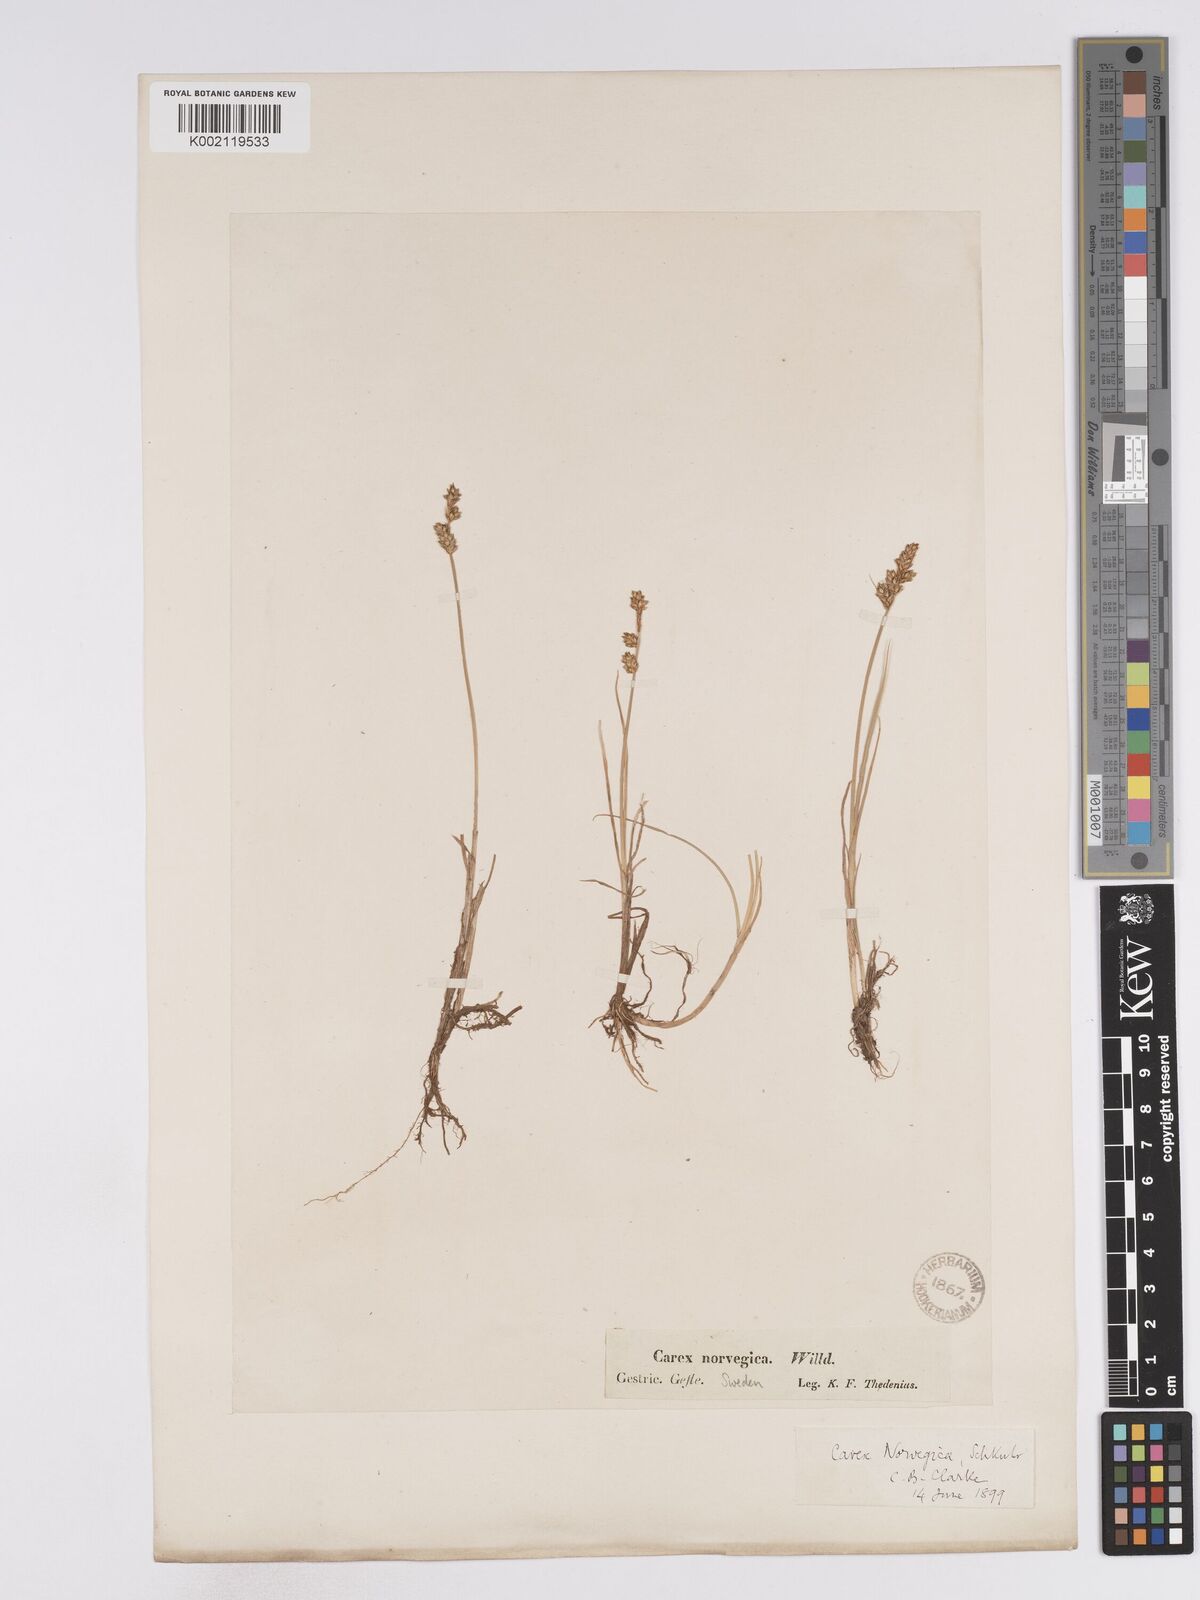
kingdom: Plantae
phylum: Tracheophyta
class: Liliopsida
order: Poales
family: Cyperaceae
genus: Carex
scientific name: Carex mackenziei
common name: Mackenzie's sedge
